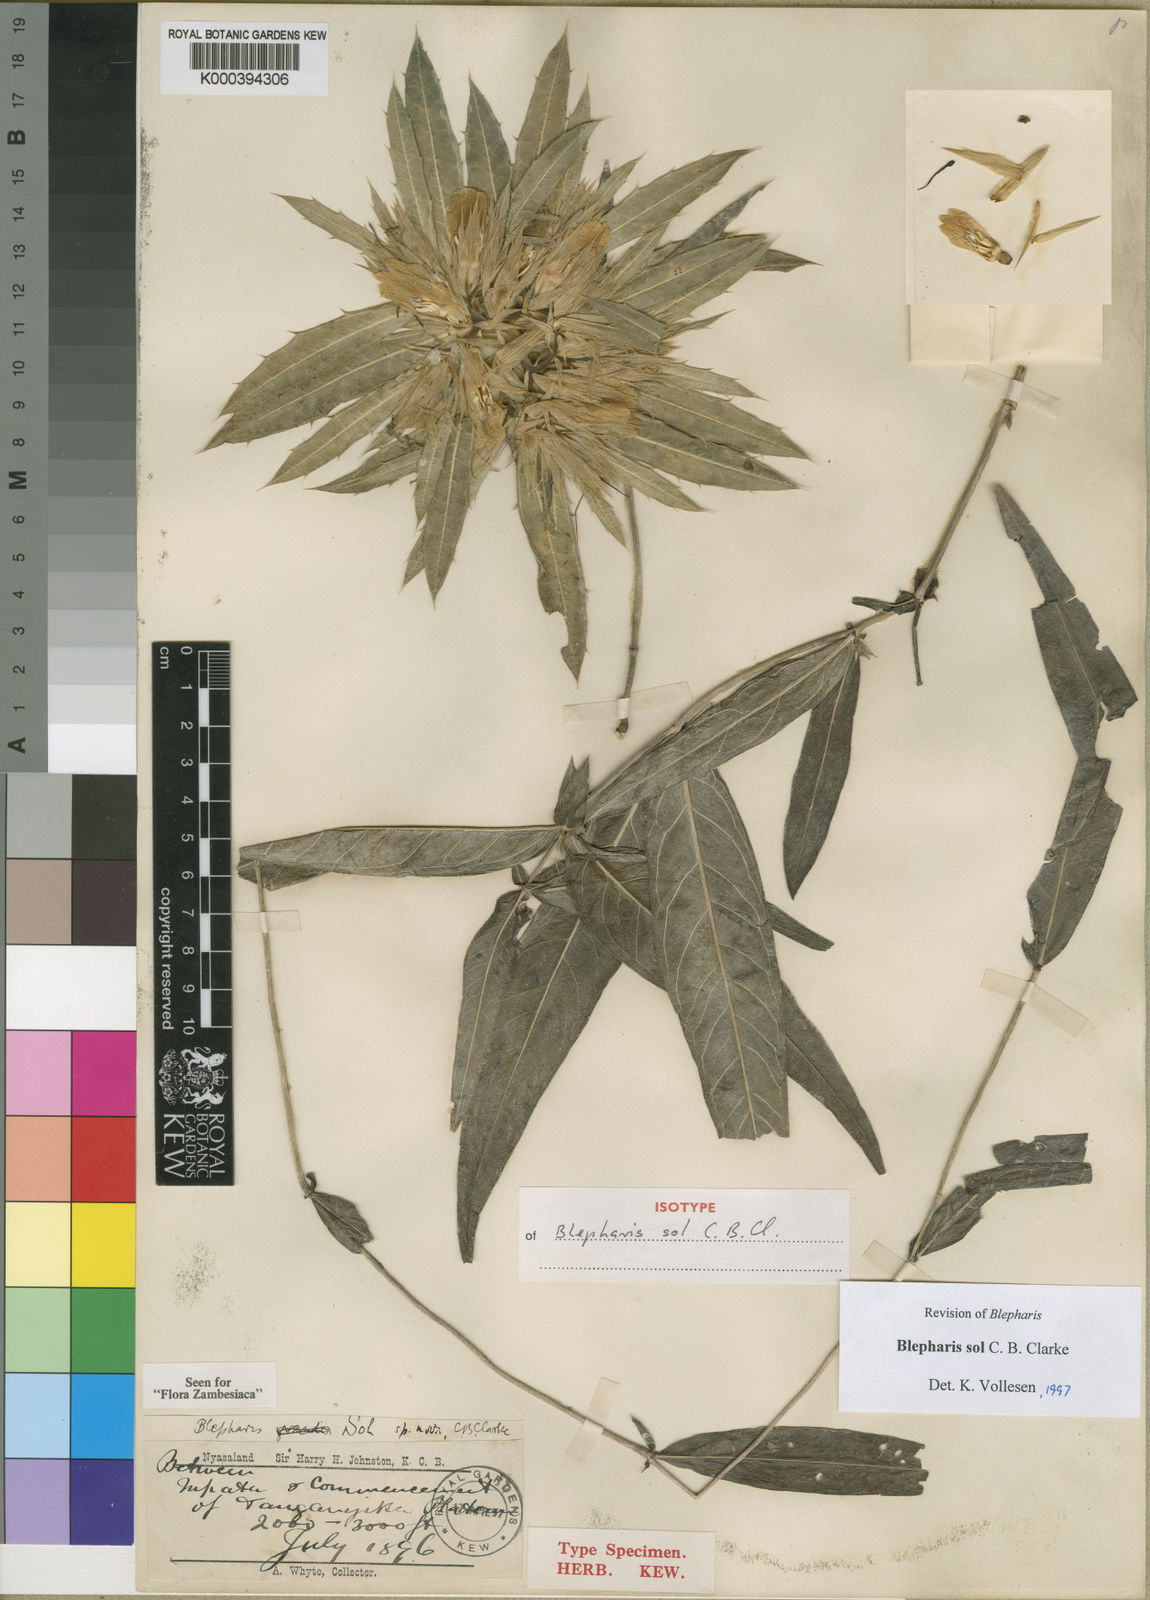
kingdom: Plantae
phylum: Tracheophyta
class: Magnoliopsida
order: Lamiales
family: Acanthaceae
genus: Blepharis
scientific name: Blepharis sol
